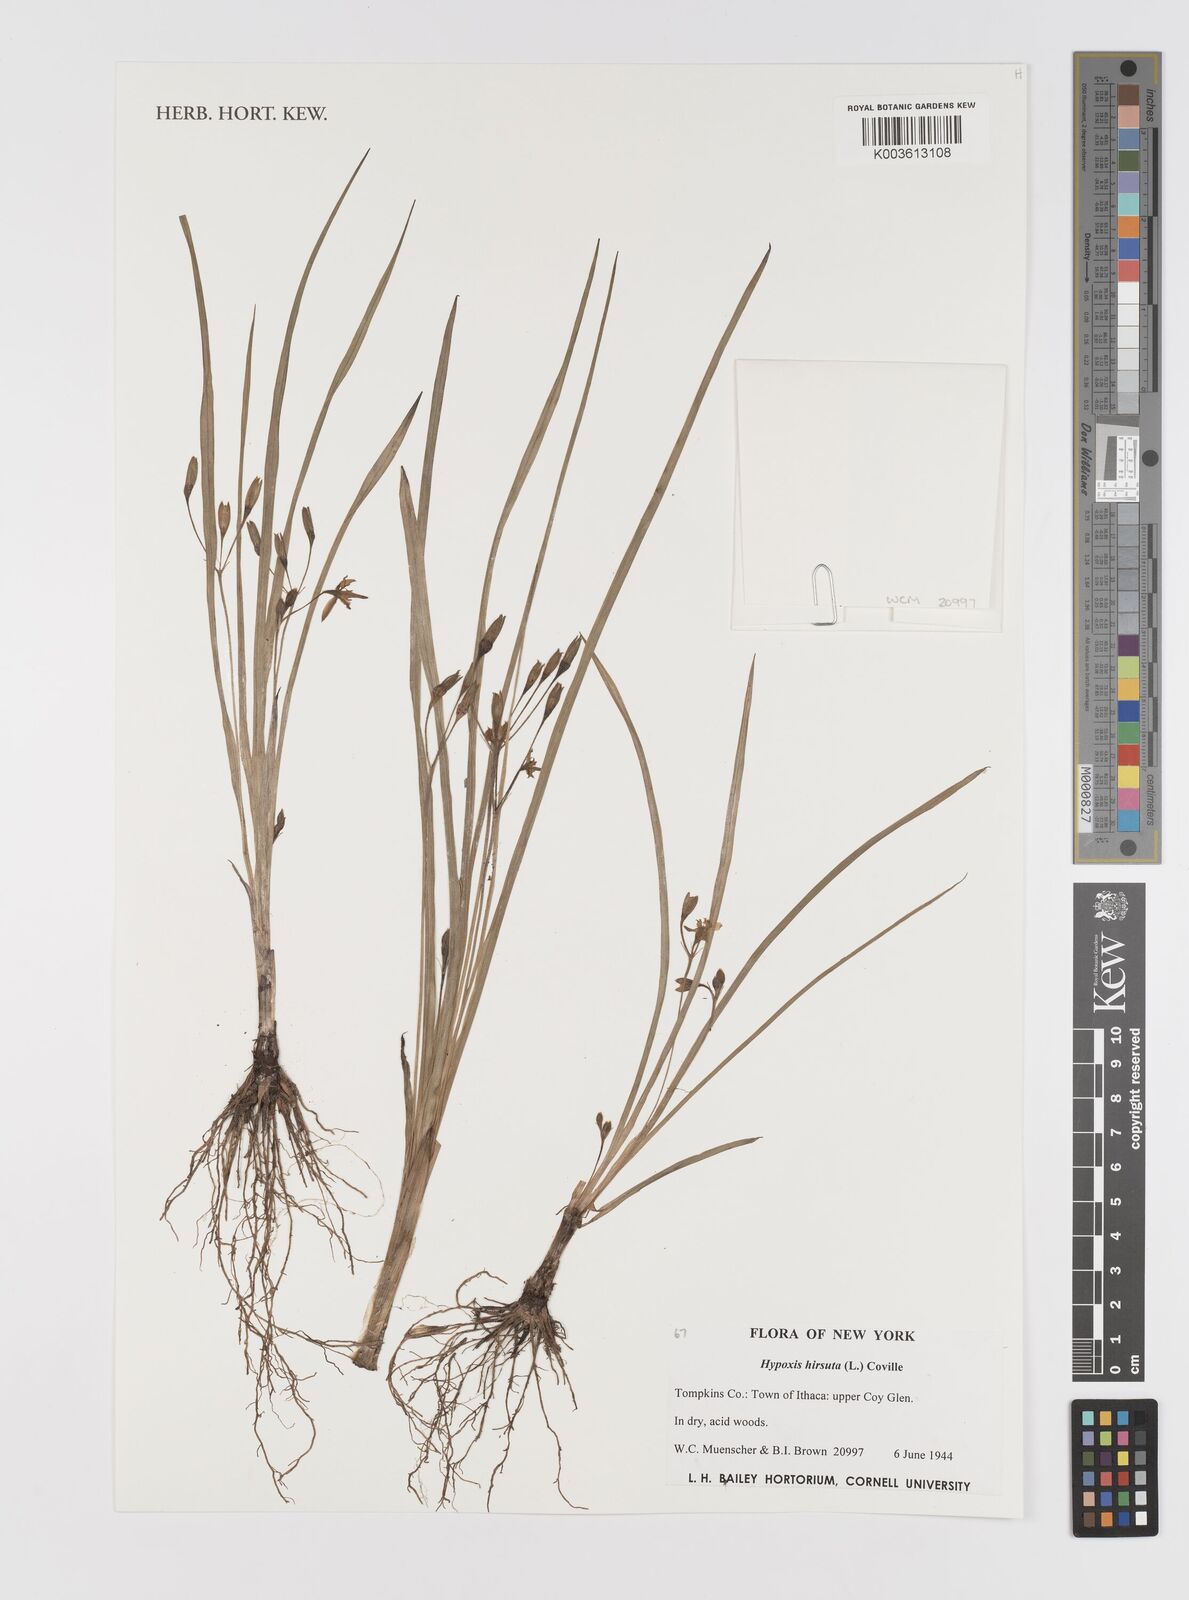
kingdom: Plantae
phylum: Tracheophyta
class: Liliopsida
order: Asparagales
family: Hypoxidaceae
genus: Hypoxis
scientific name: Hypoxis hirsuta
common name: Common goldstar
